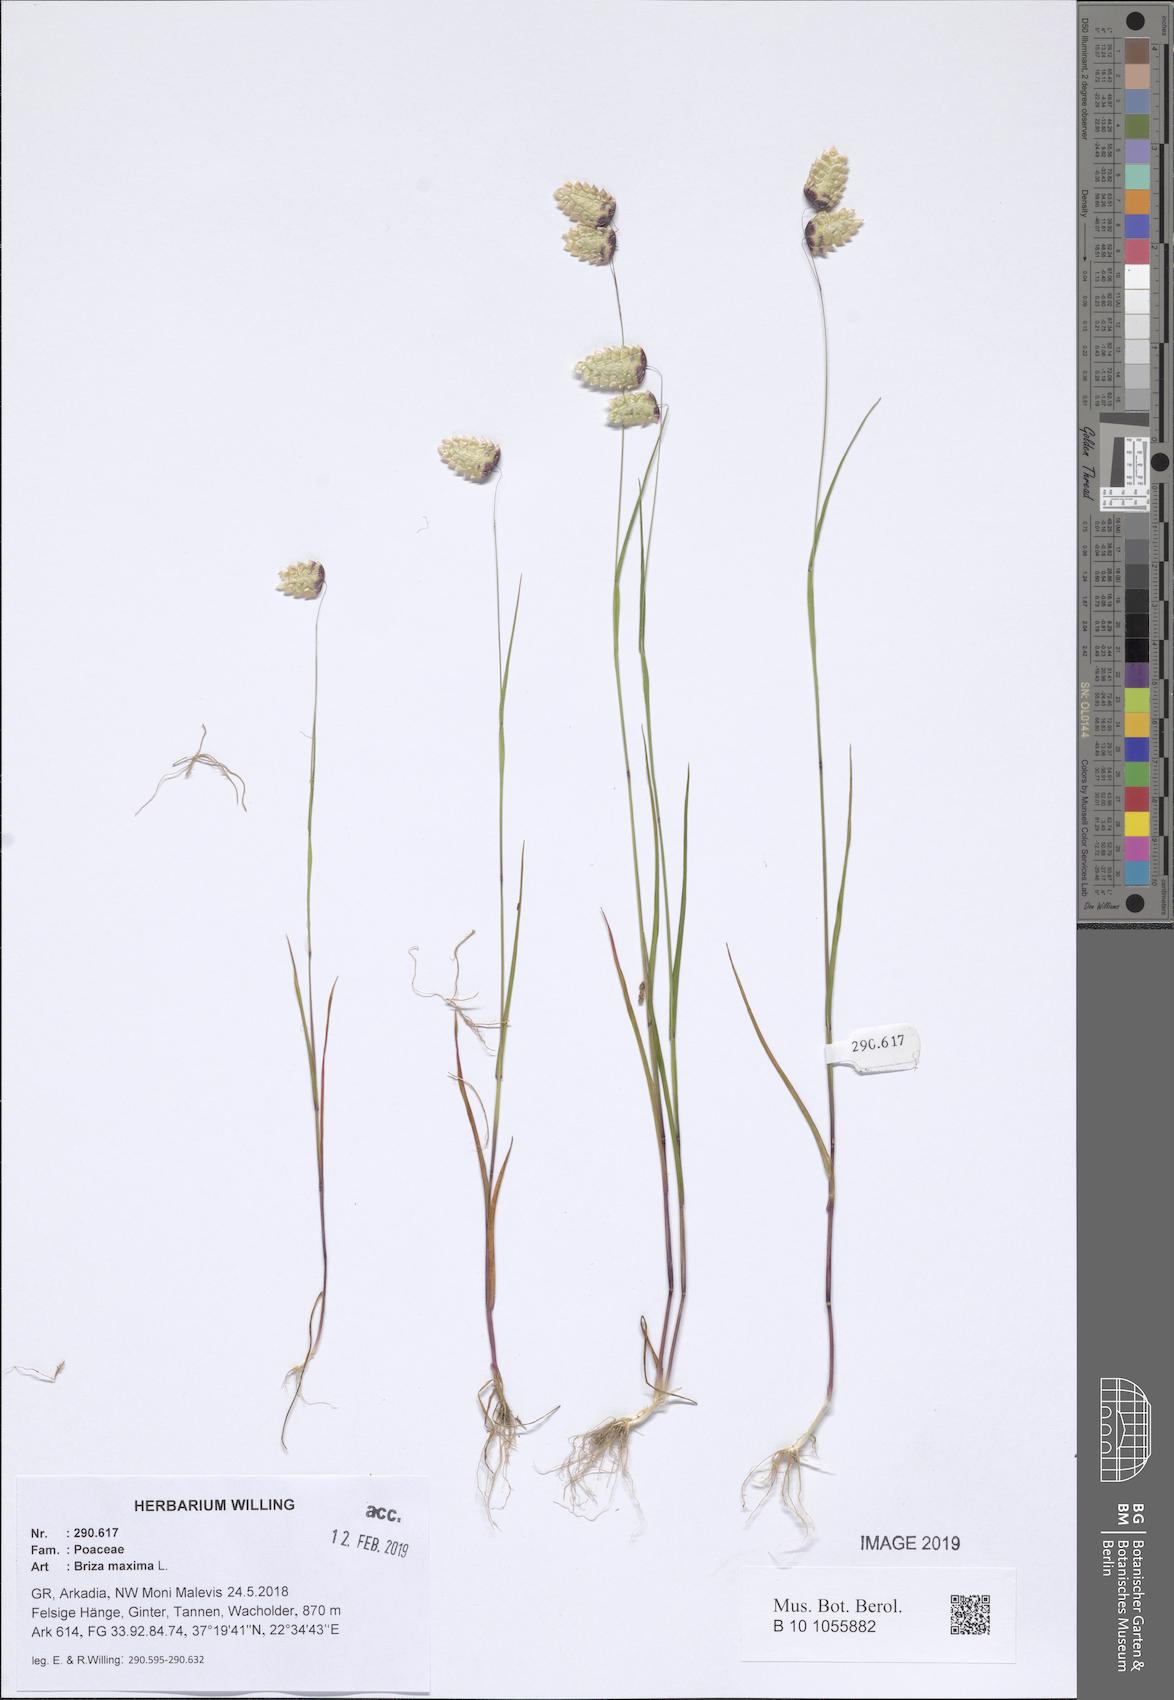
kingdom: Plantae
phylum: Tracheophyta
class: Liliopsida
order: Poales
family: Poaceae
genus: Briza
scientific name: Briza maxima
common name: Big quakinggrass
